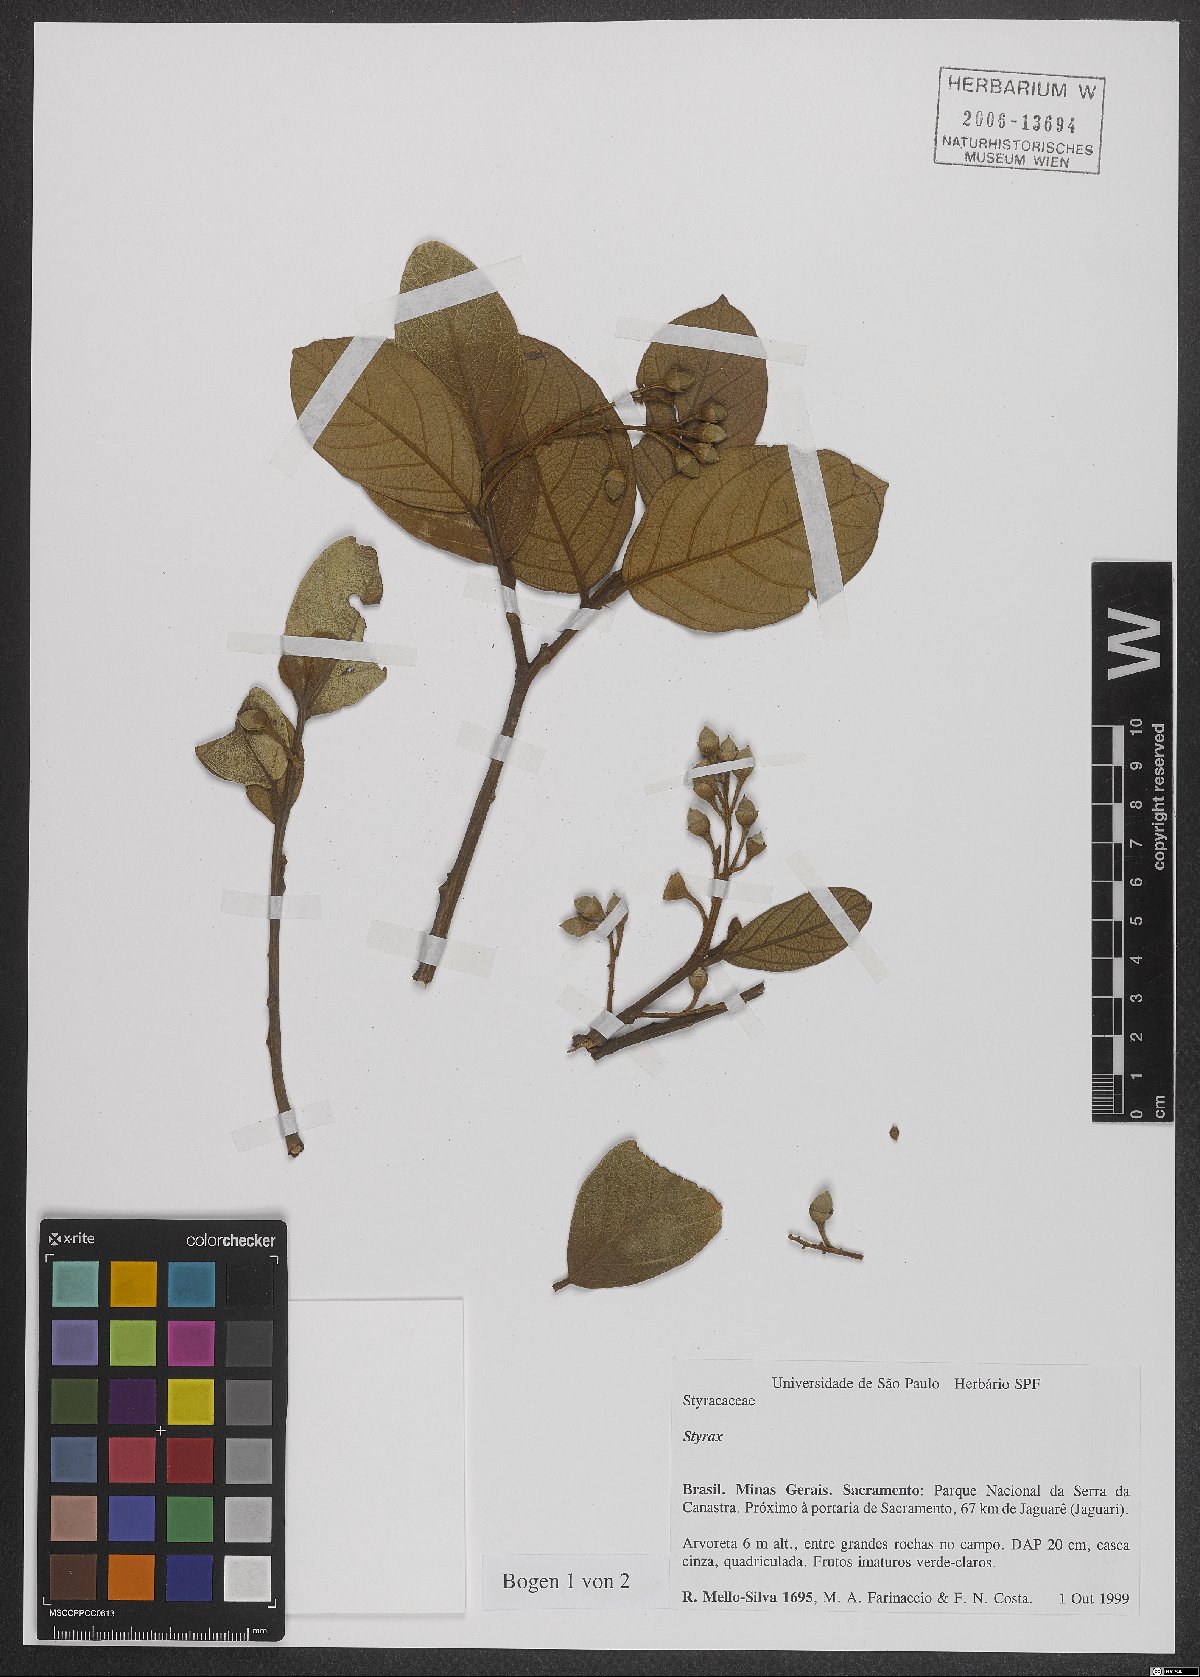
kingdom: Plantae
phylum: Tracheophyta
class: Magnoliopsida
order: Ericales
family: Styracaceae
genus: Styrax
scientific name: Styrax
